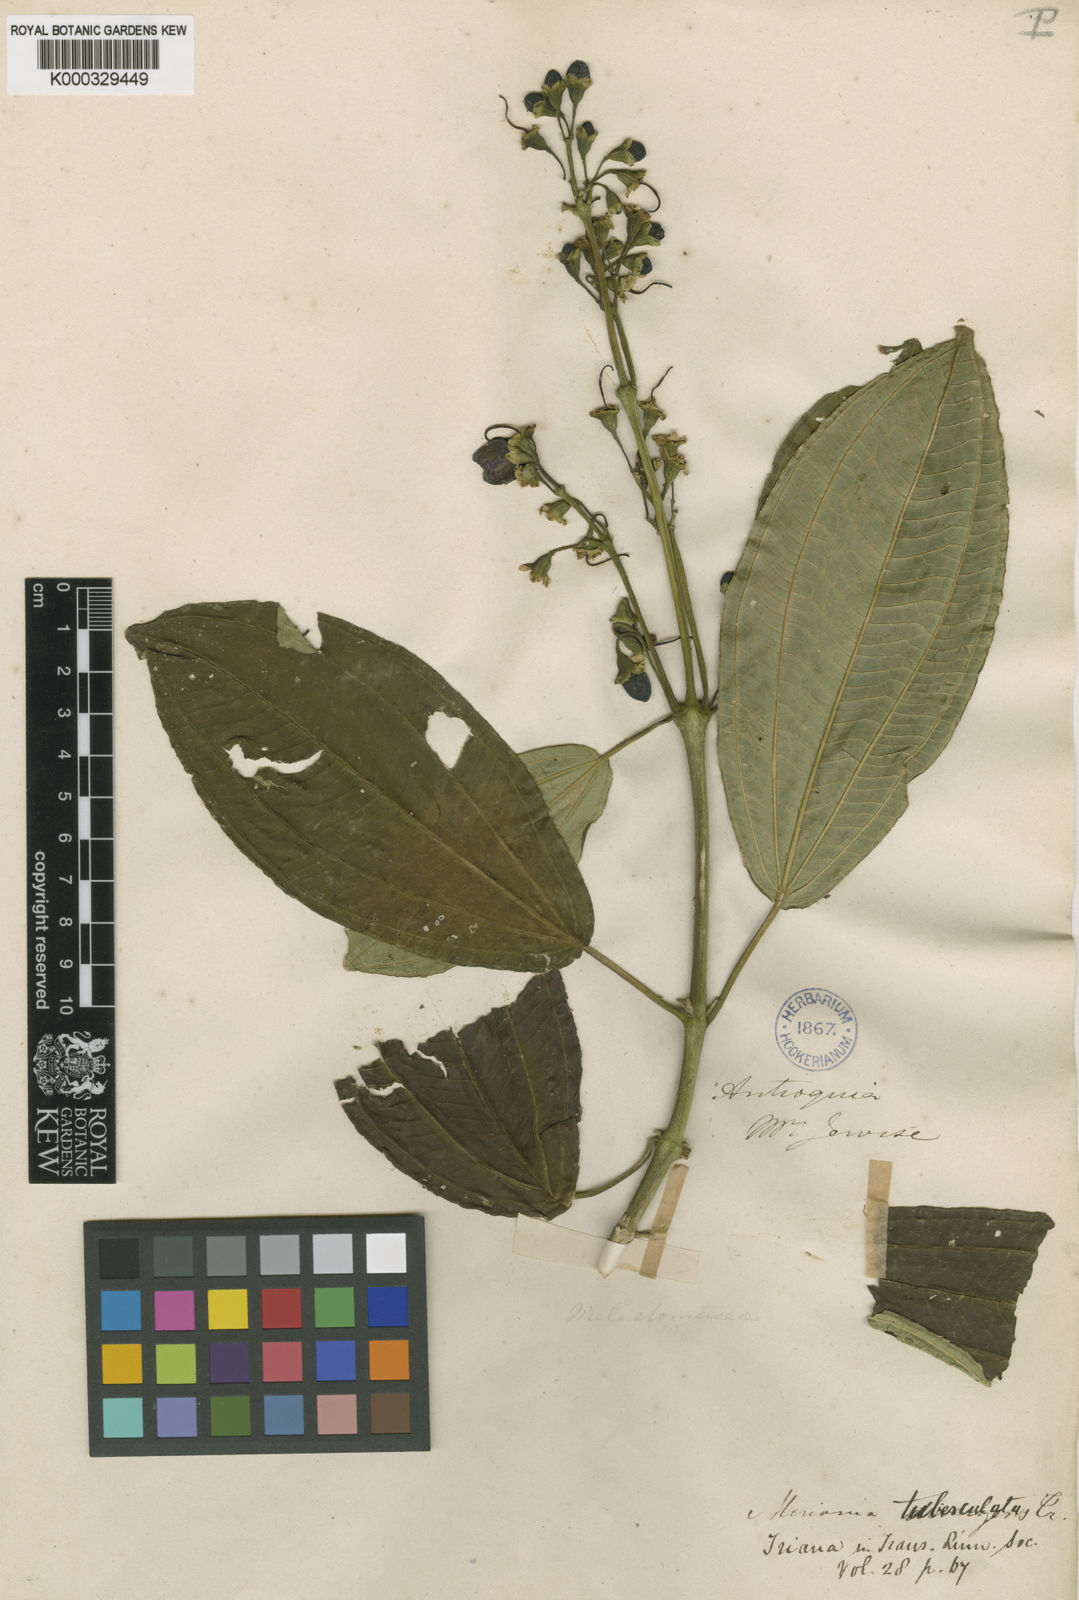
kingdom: Plantae
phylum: Tracheophyta
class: Magnoliopsida
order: Myrtales
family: Melastomataceae
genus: Meriania
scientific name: Meriania quintuplinervia
